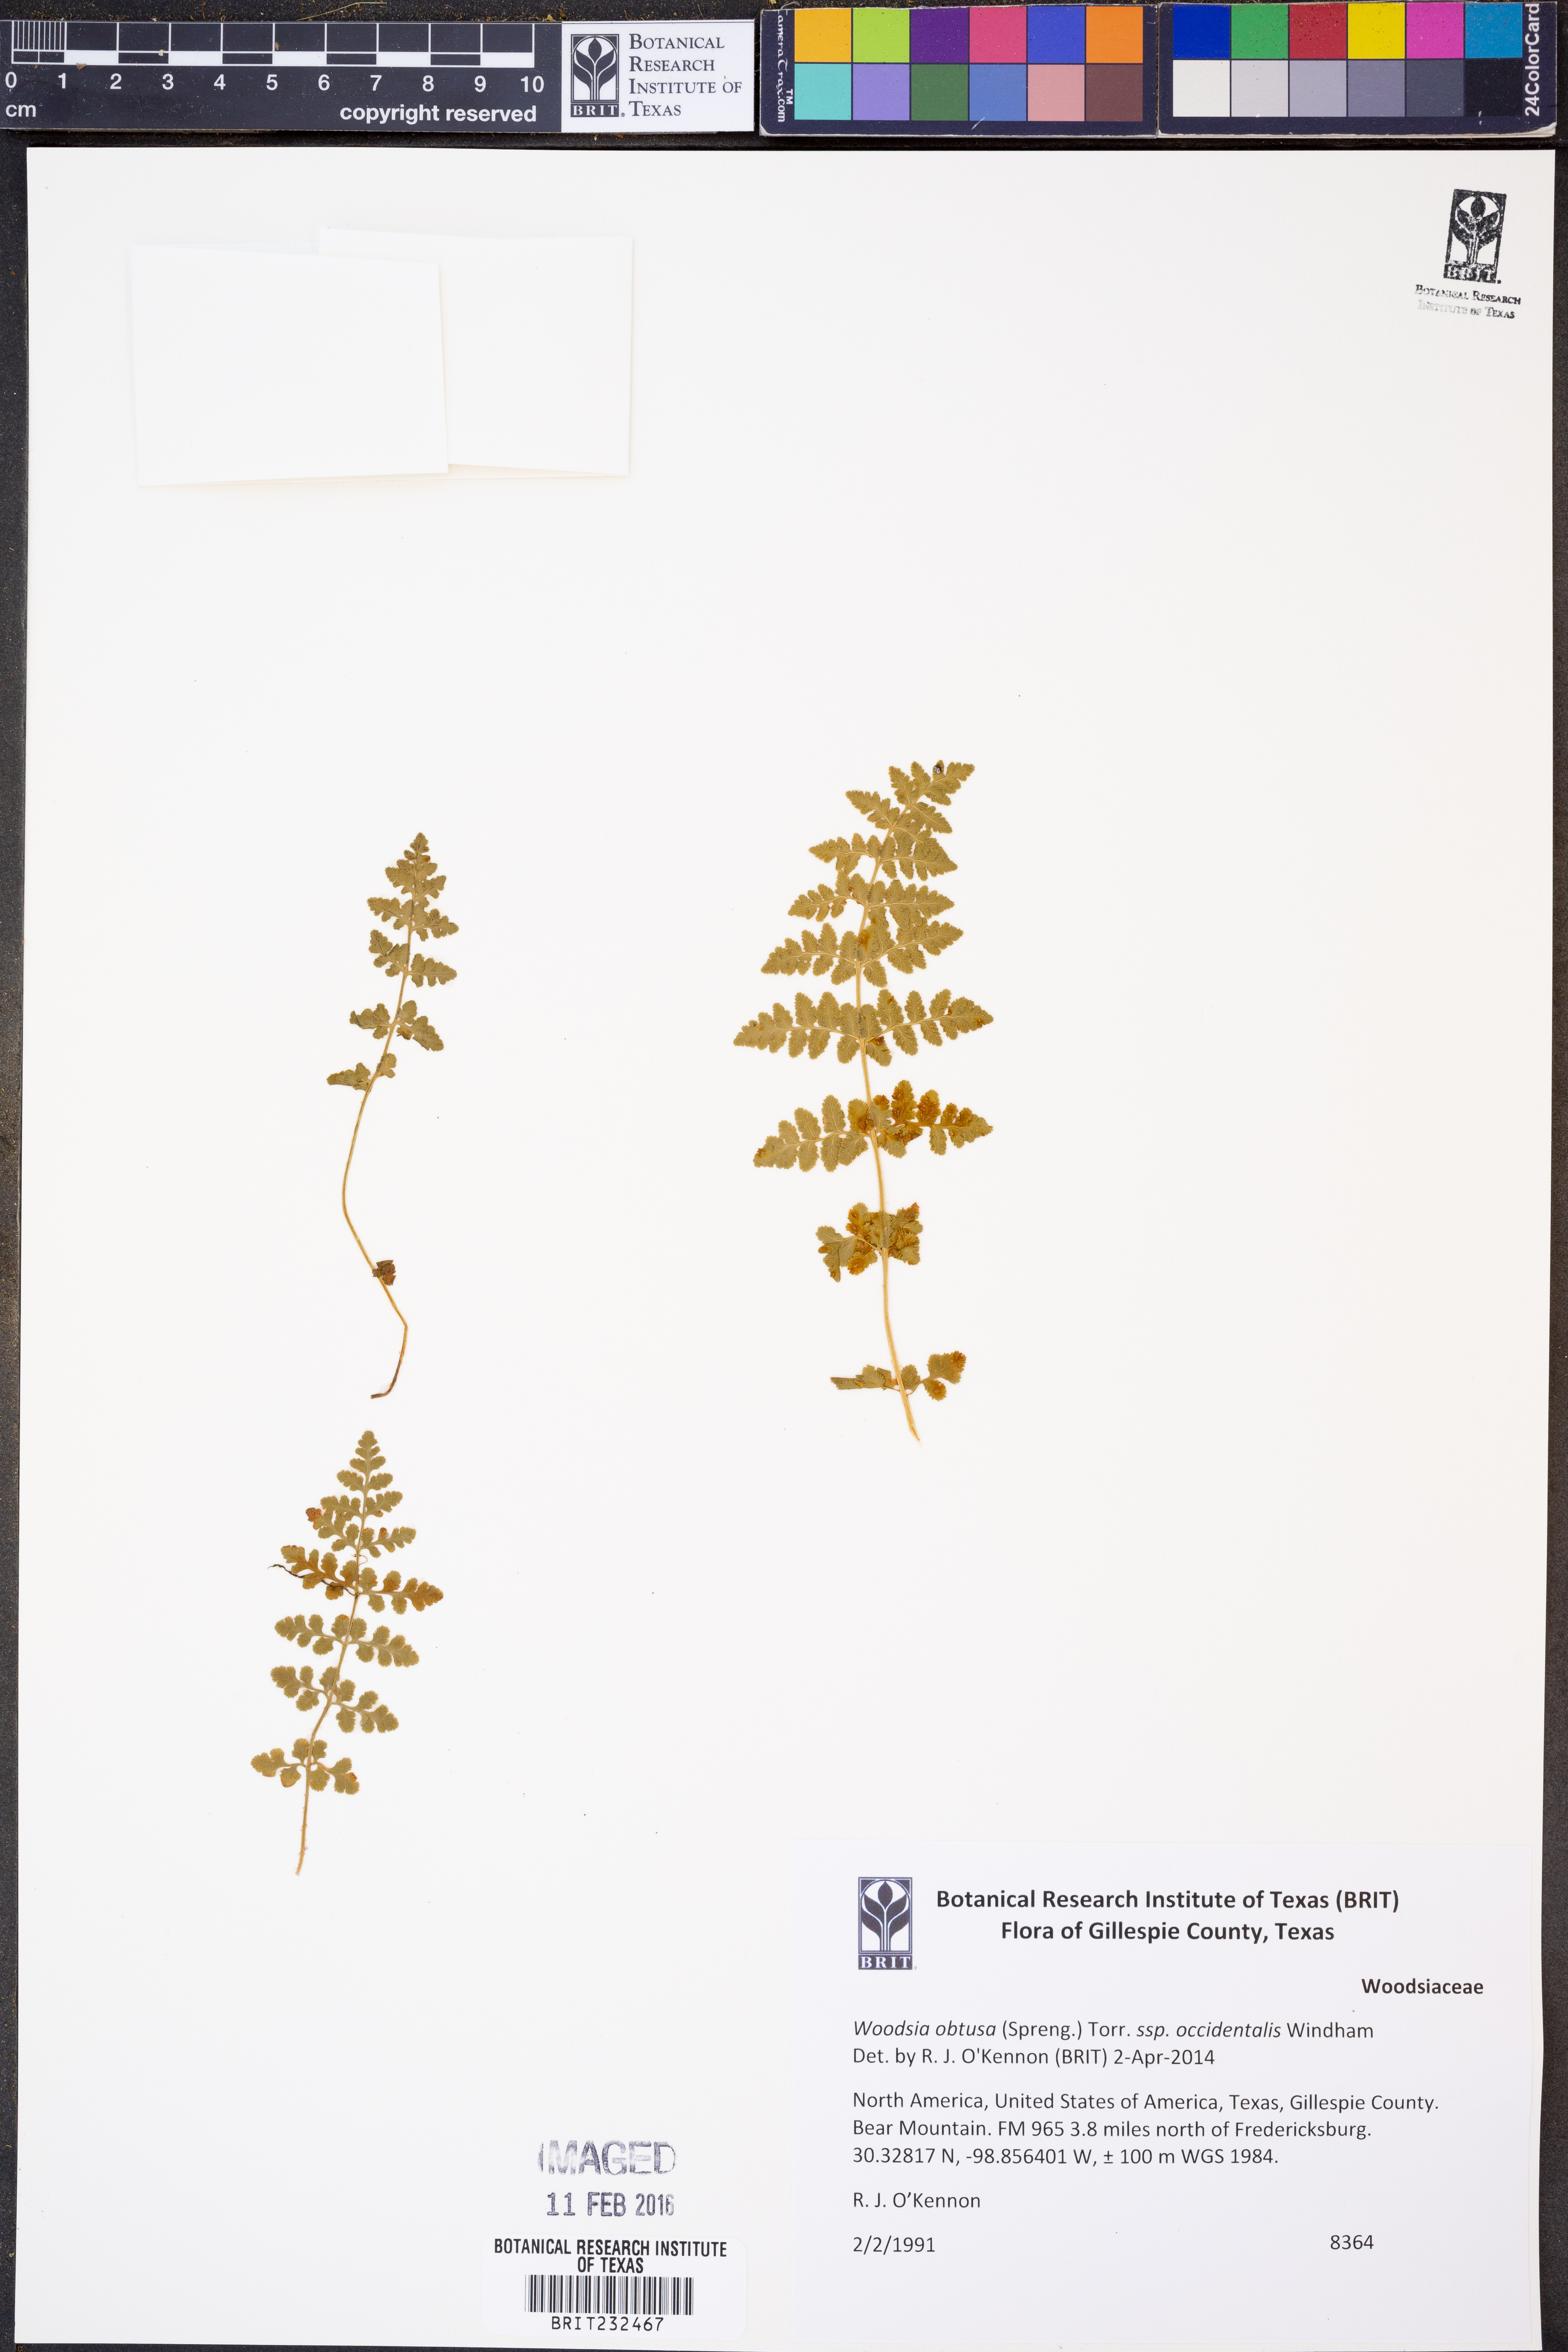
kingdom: Plantae
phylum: Tracheophyta
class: Polypodiopsida
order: Polypodiales
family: Woodsiaceae
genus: Physematium
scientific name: Physematium obtusum
